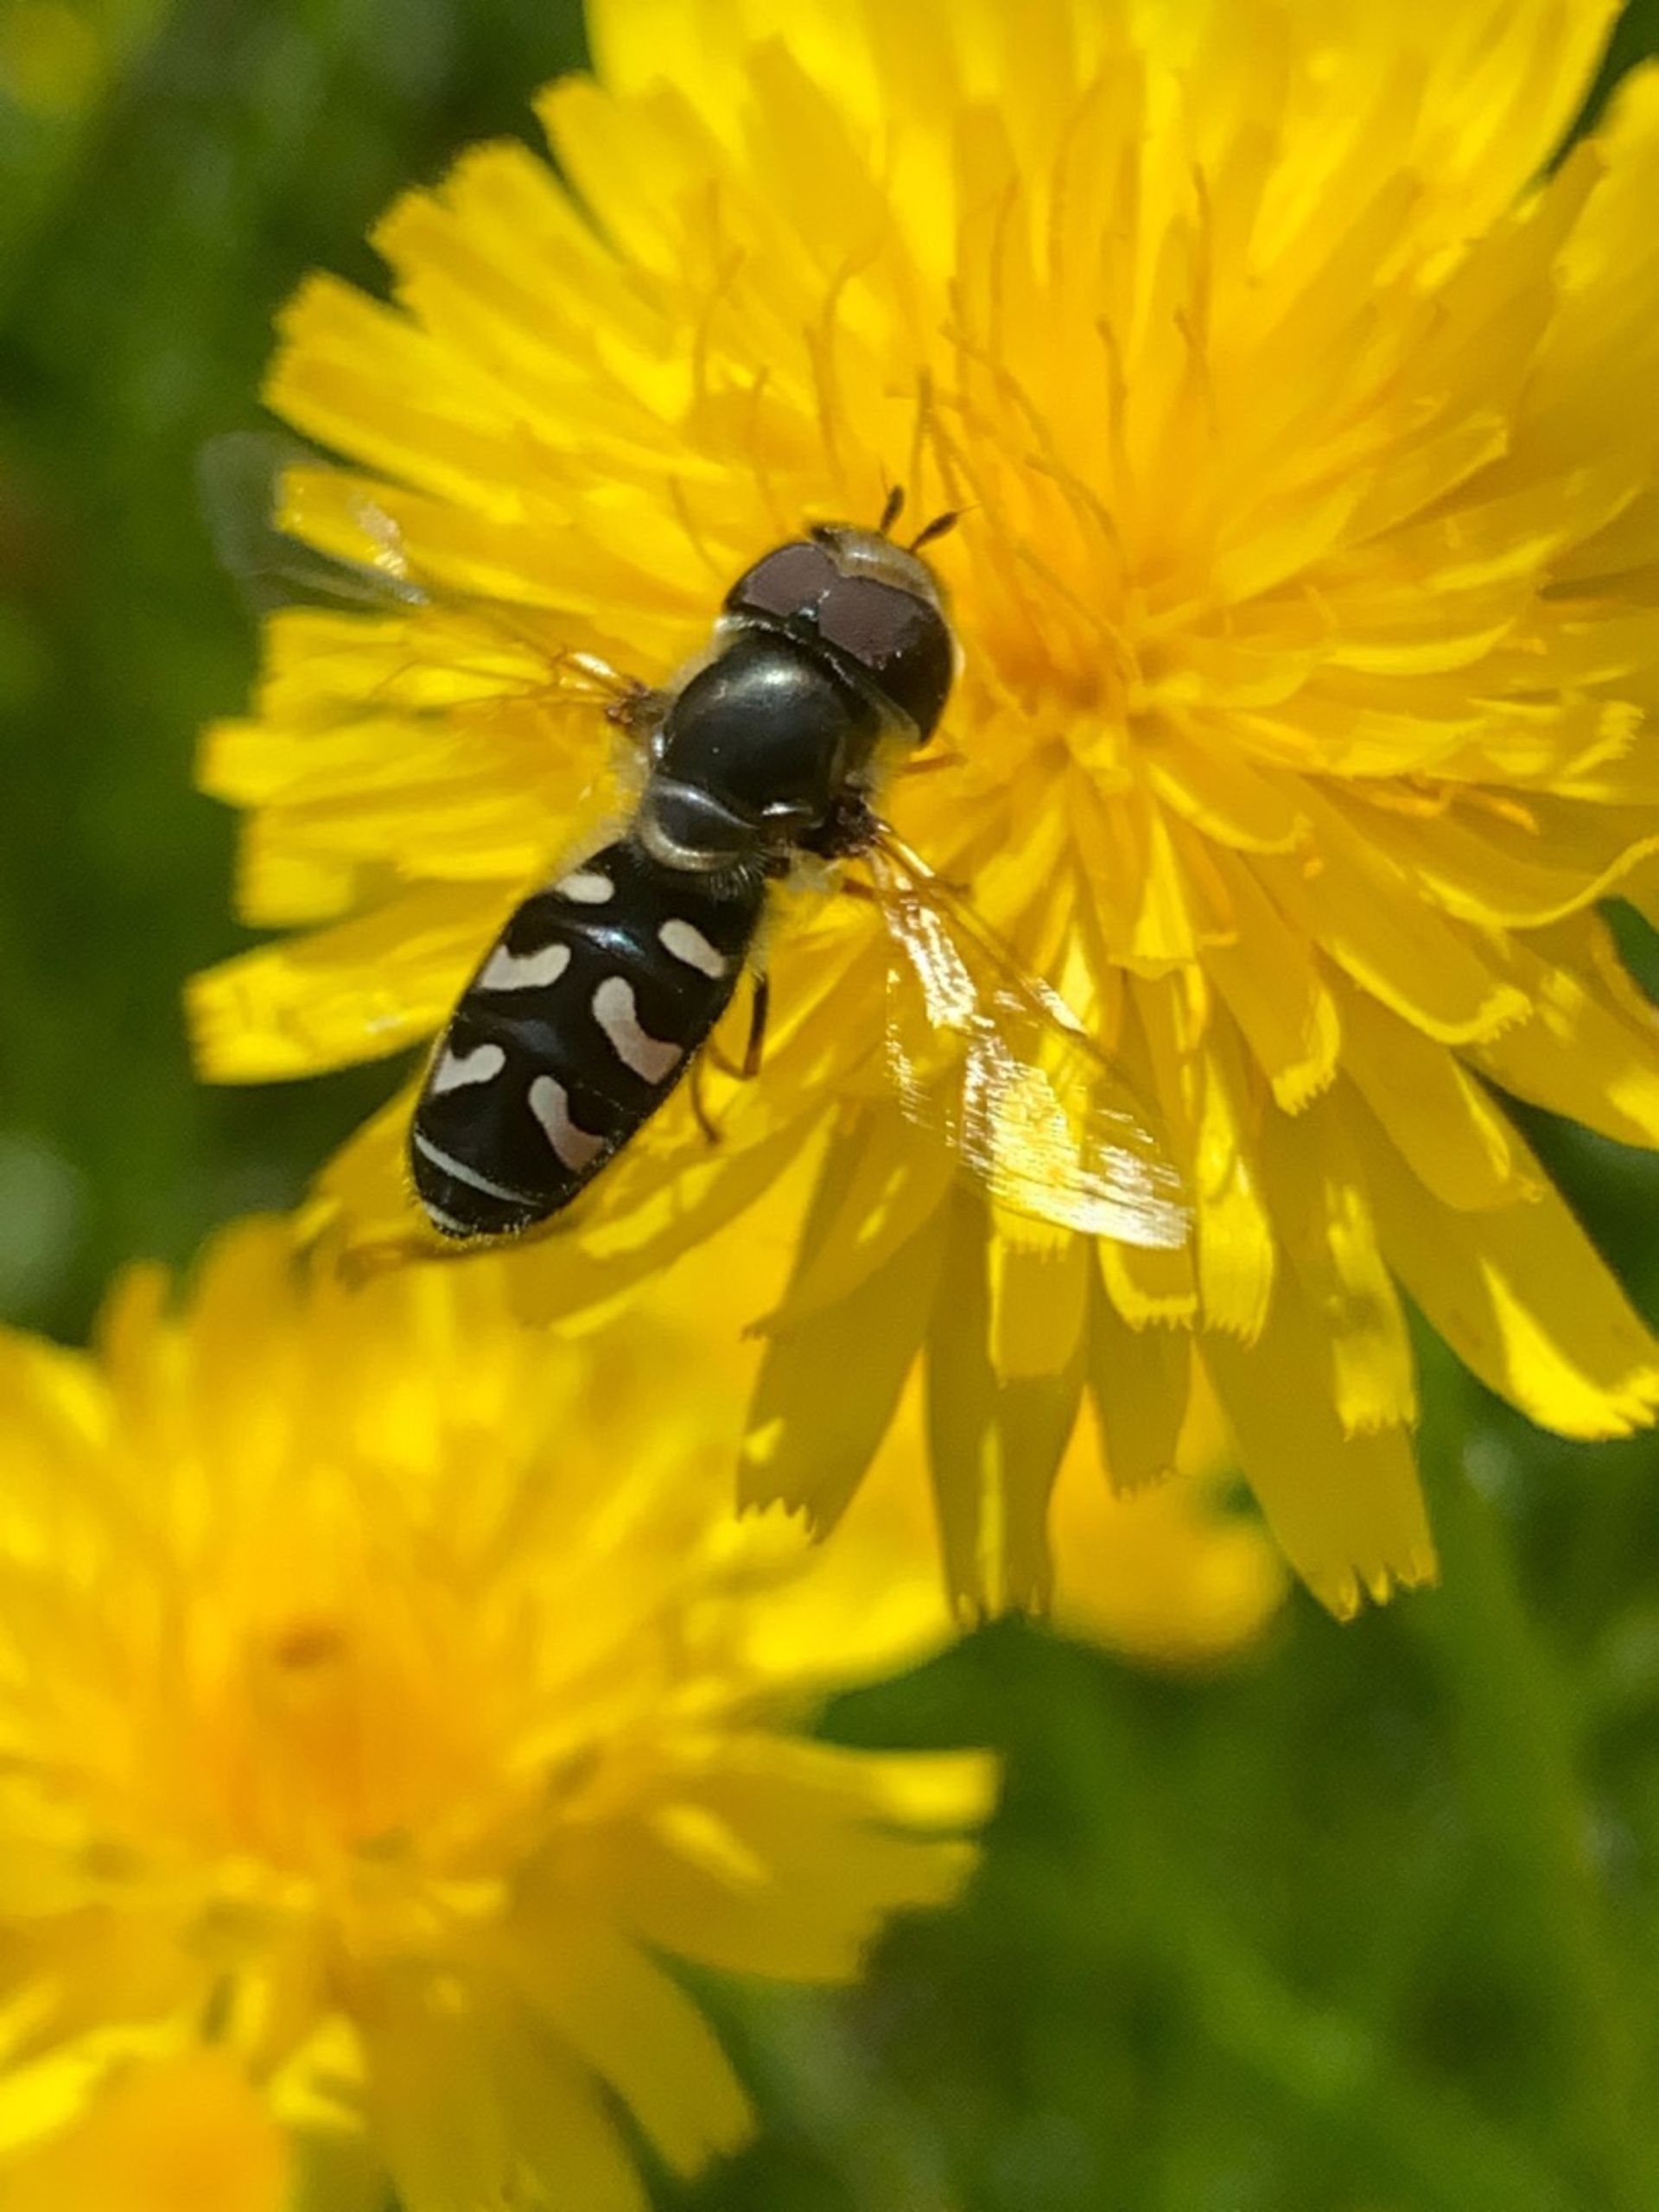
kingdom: Animalia
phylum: Arthropoda
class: Insecta
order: Diptera
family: Syrphidae
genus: Scaeva
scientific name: Scaeva pyrastri
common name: Hvidplettet agersvirreflue
